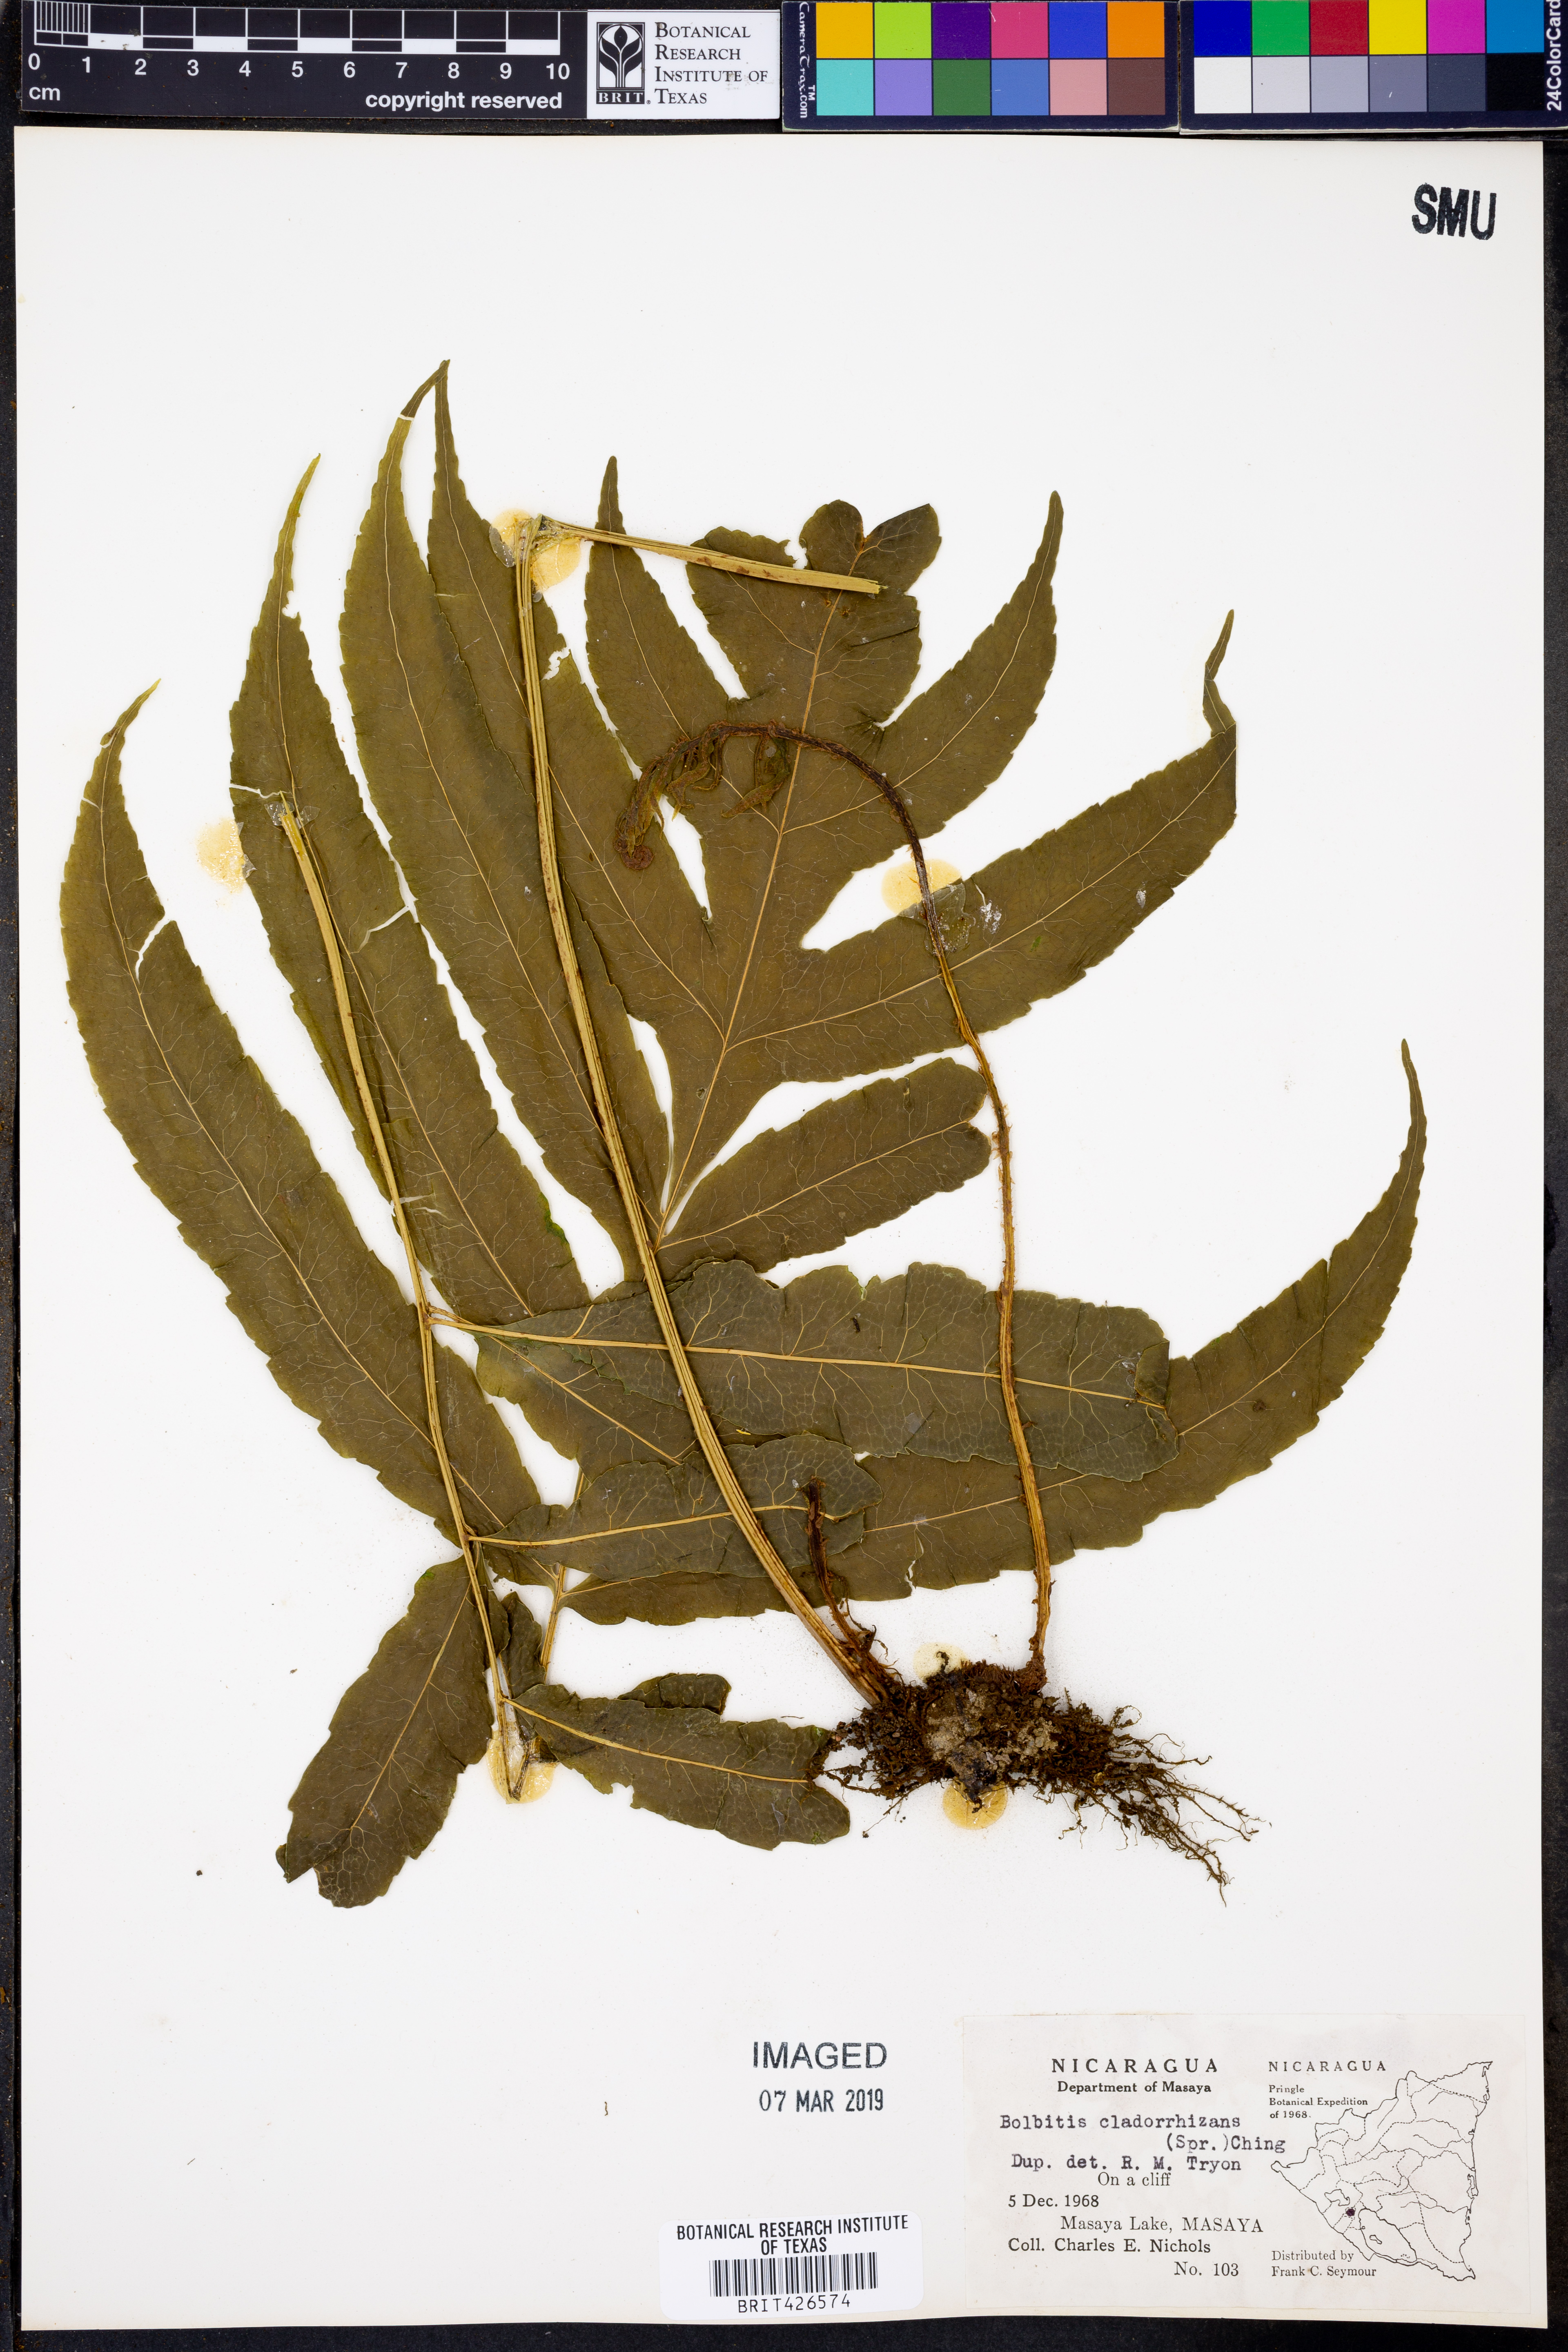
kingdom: Plantae
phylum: Tracheophyta
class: Polypodiopsida
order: Polypodiales
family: Dryopteridaceae
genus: Bolbitis
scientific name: Bolbitis portoricensis
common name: Puerto rico creepingfer
